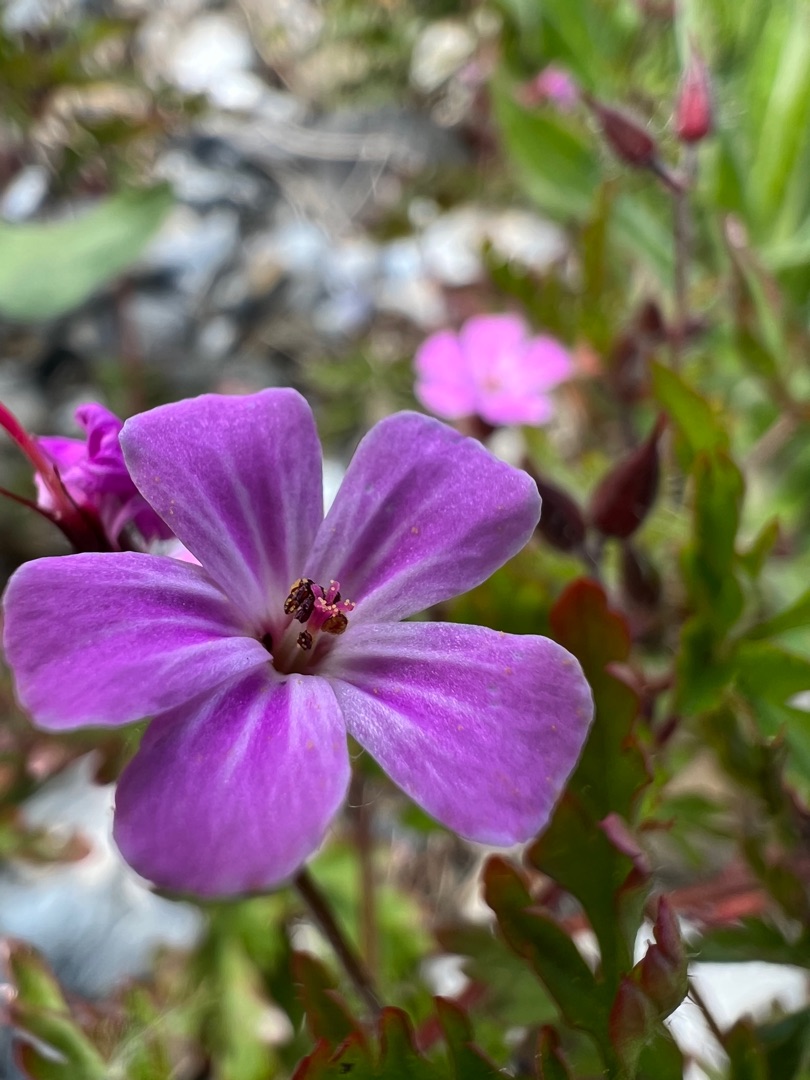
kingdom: Plantae
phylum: Tracheophyta
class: Magnoliopsida
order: Geraniales
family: Geraniaceae
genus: Geranium
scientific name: Geranium robertianum
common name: Stinkende storkenæb
